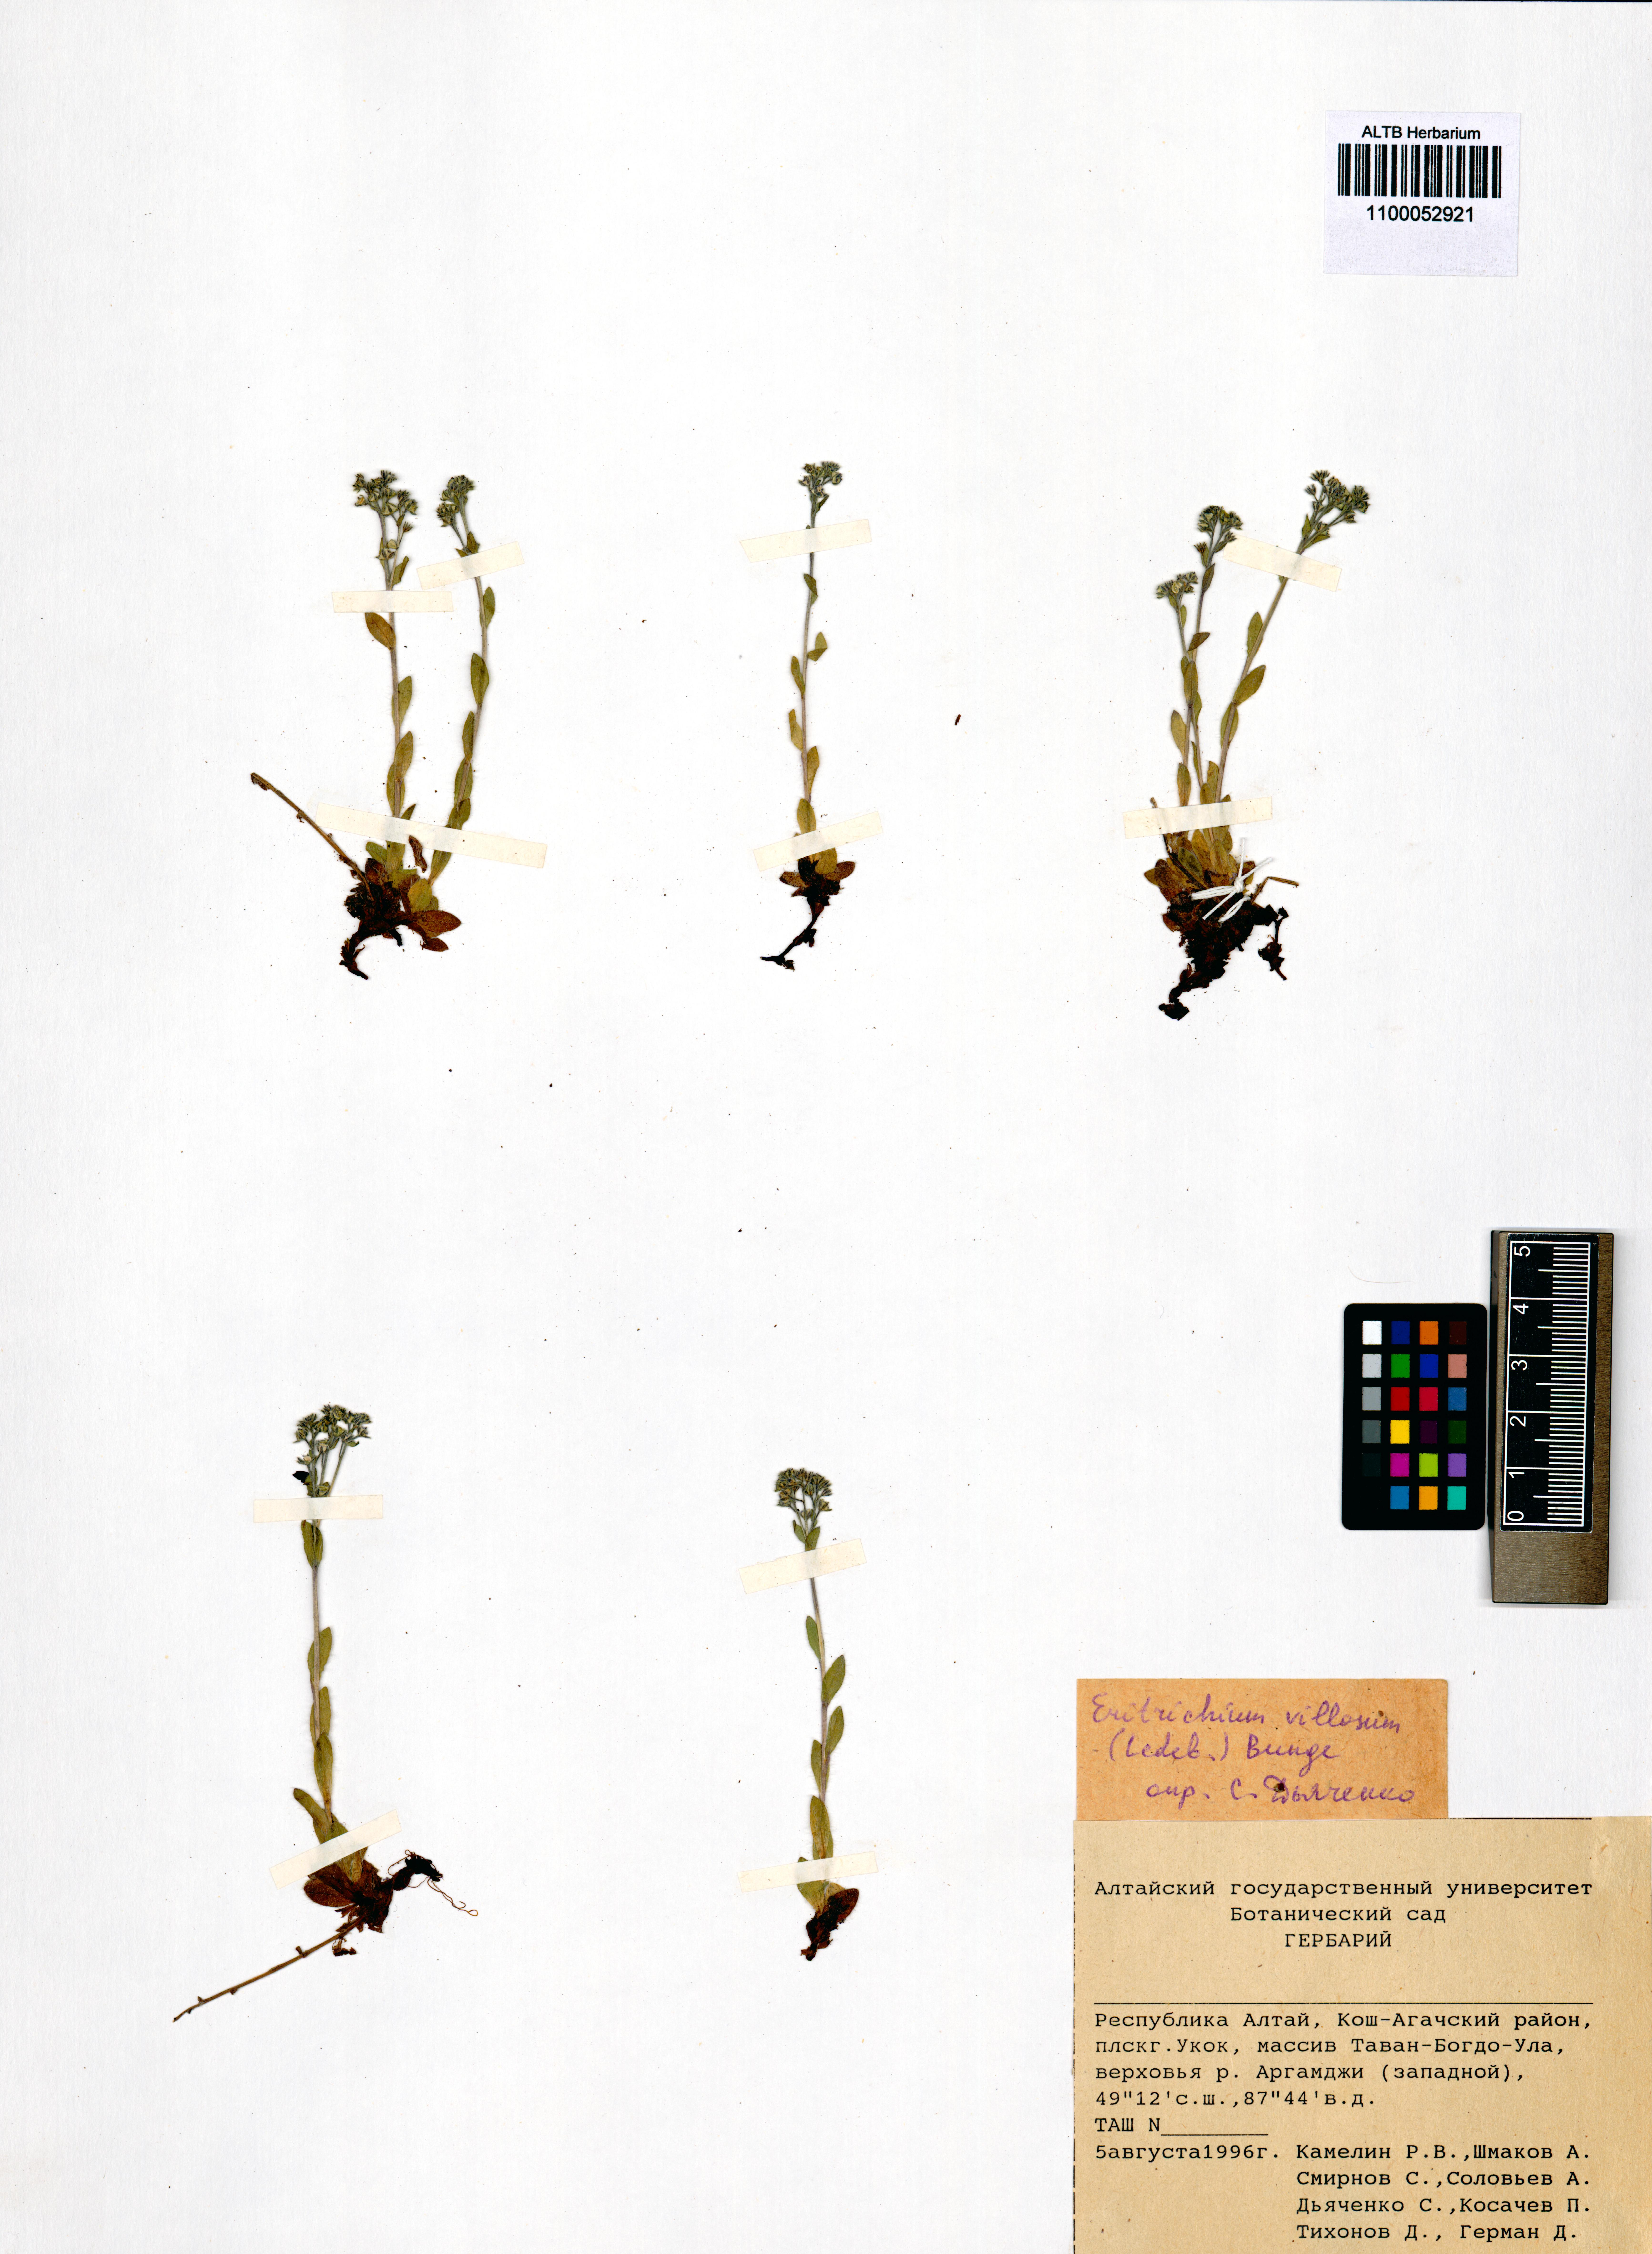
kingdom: Plantae
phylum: Tracheophyta
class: Magnoliopsida
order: Boraginales
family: Boraginaceae
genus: Eritrichium
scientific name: Eritrichium villosum
